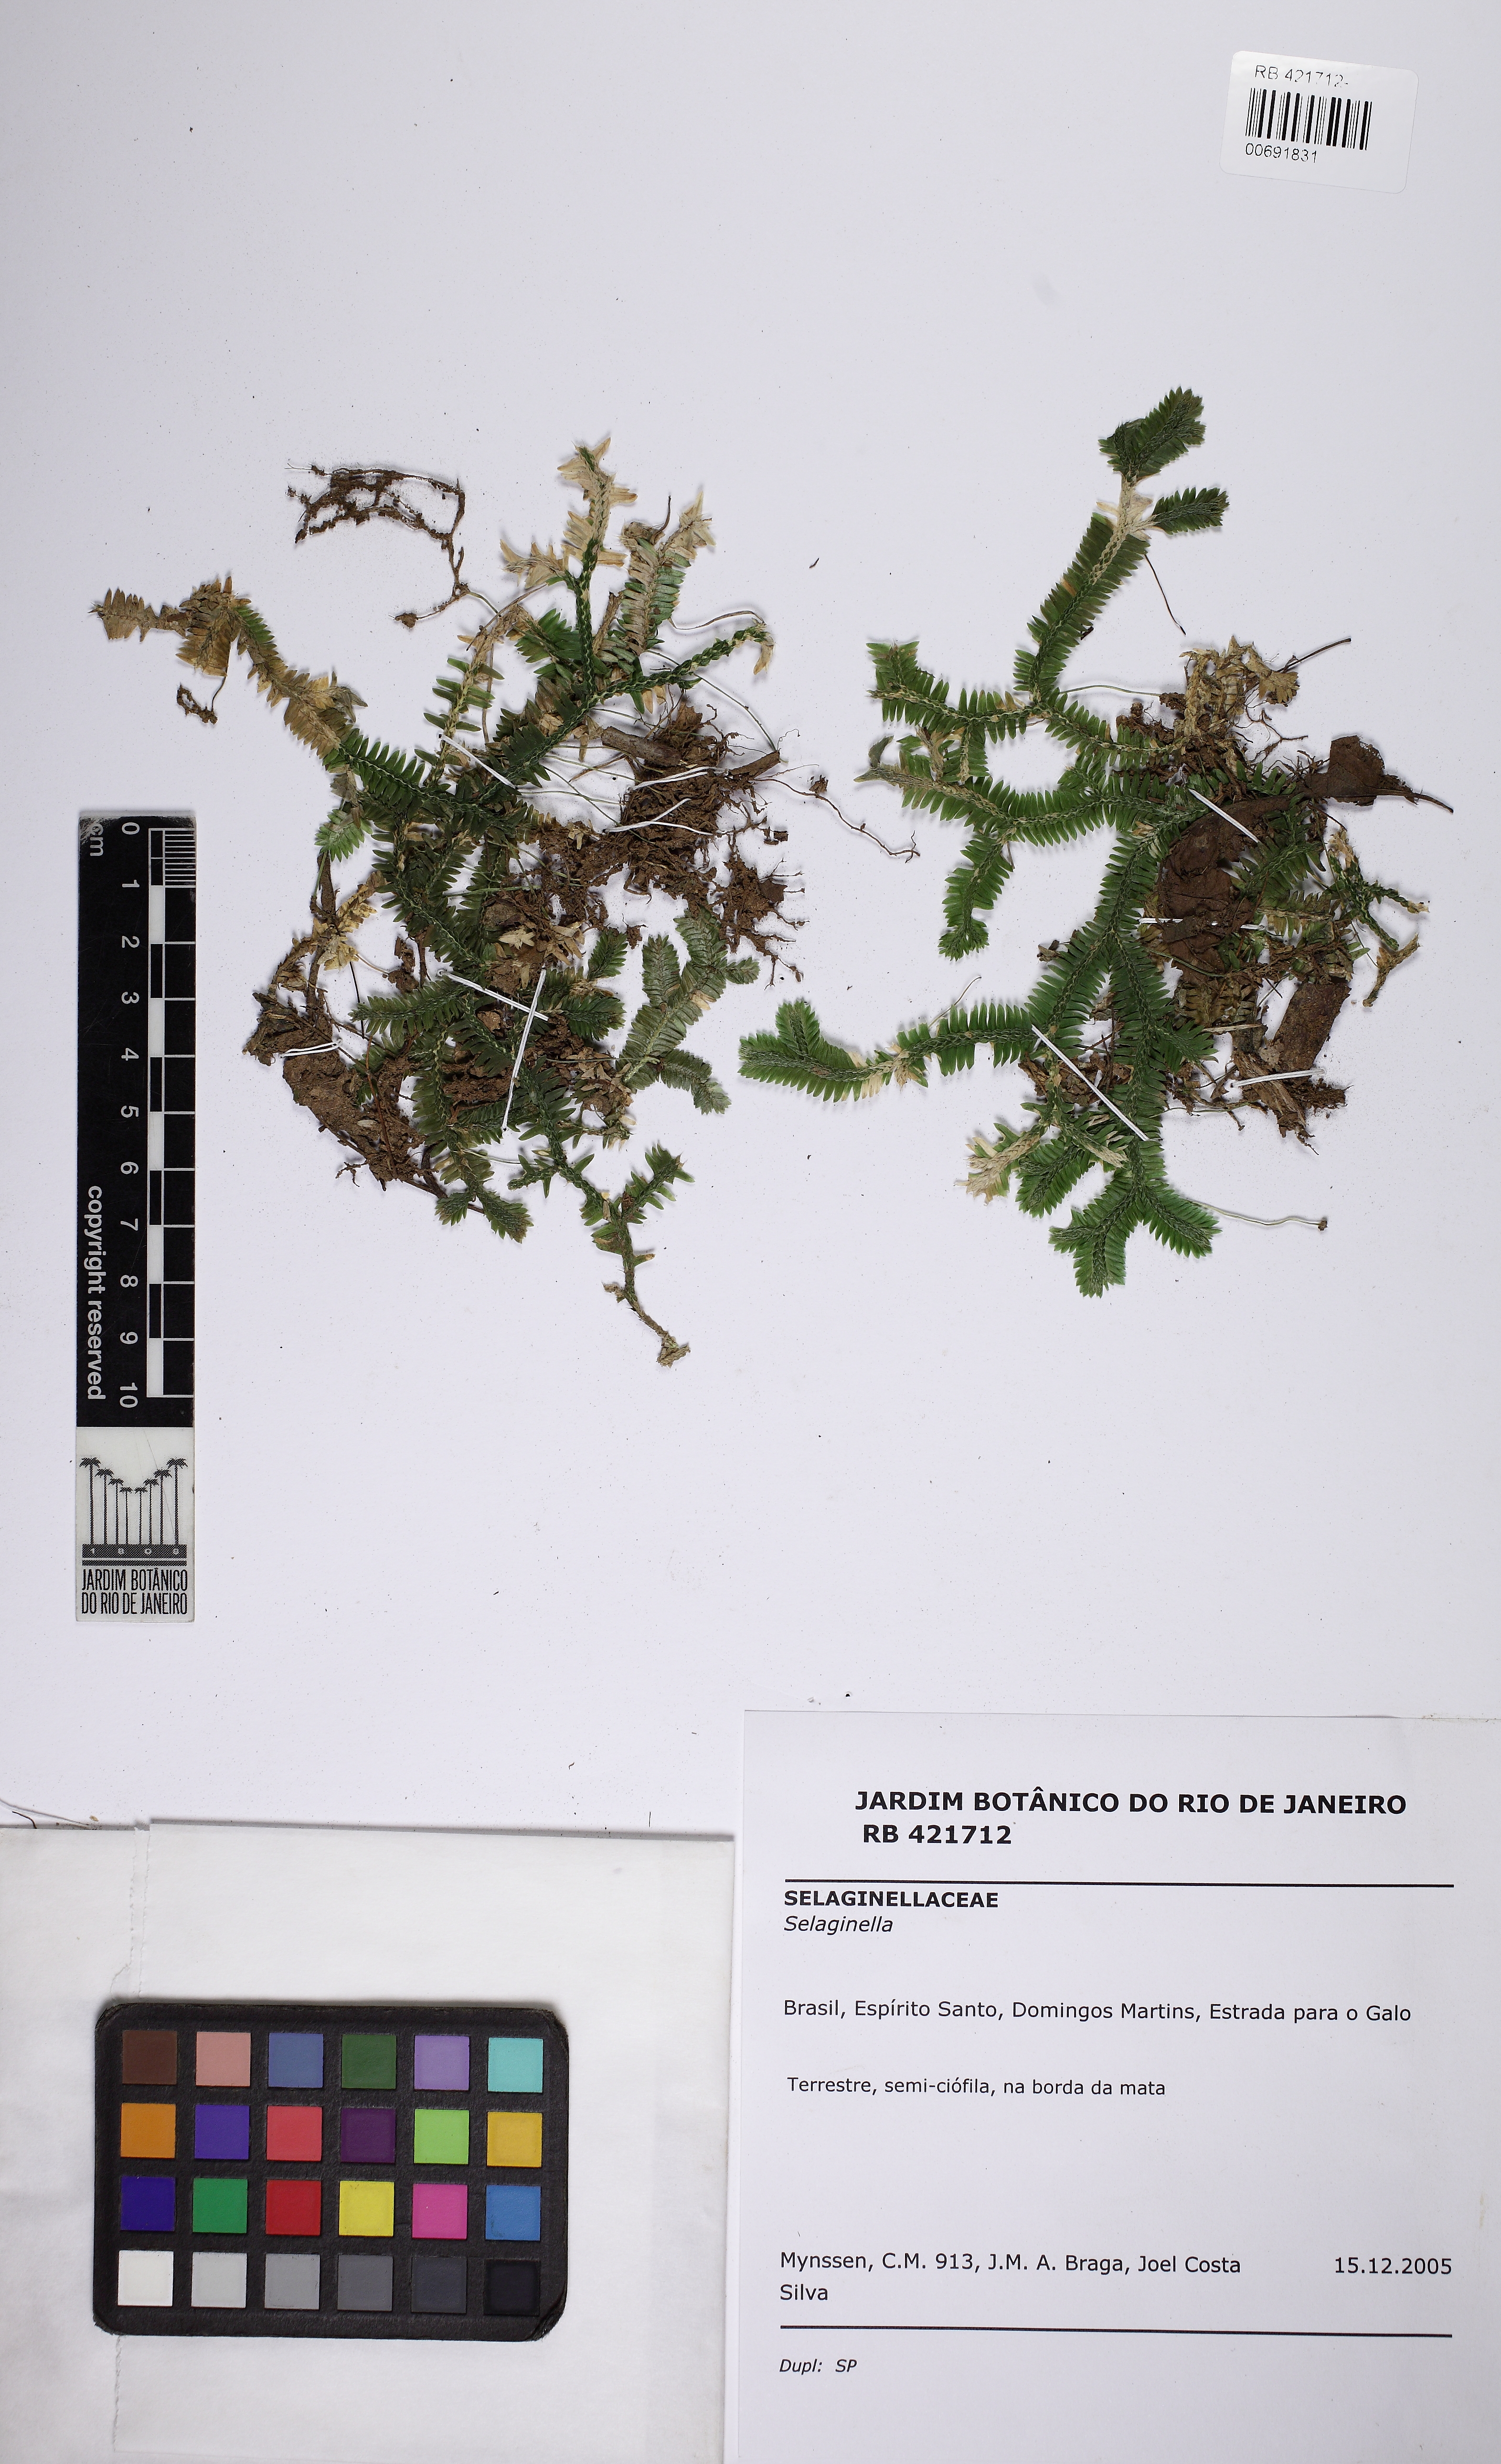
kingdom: Plantae
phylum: Tracheophyta
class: Lycopodiopsida
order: Selaginellales
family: Selaginellaceae
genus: Selaginella
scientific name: Selaginella contigua
